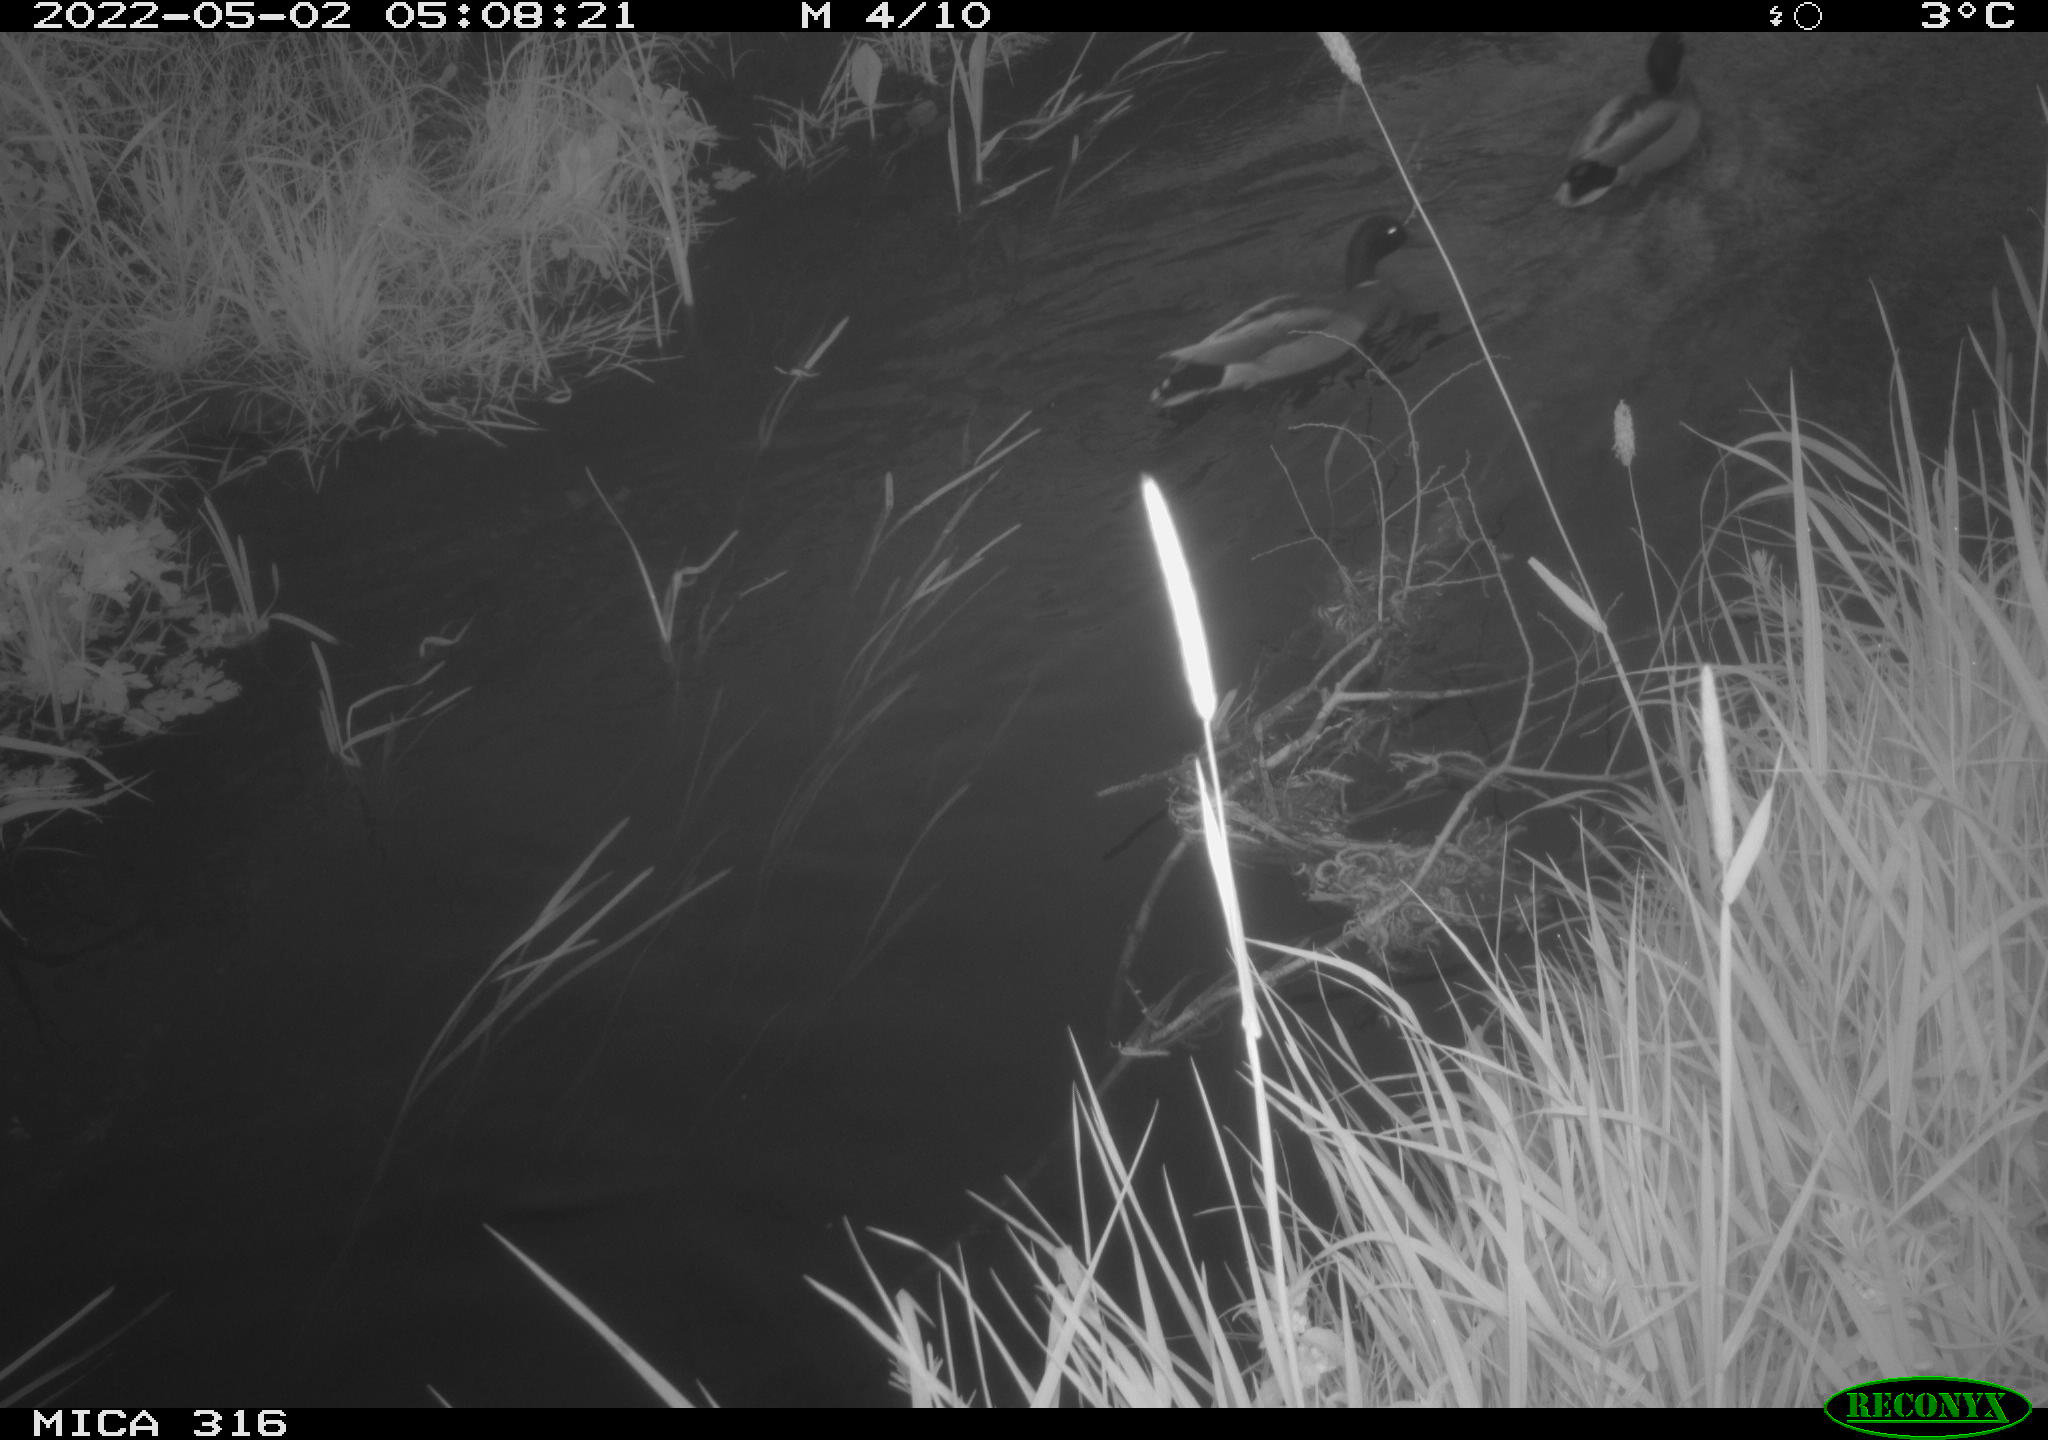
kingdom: Animalia
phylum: Chordata
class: Aves
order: Anseriformes
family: Anatidae
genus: Anas
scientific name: Anas platyrhynchos
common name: Mallard
